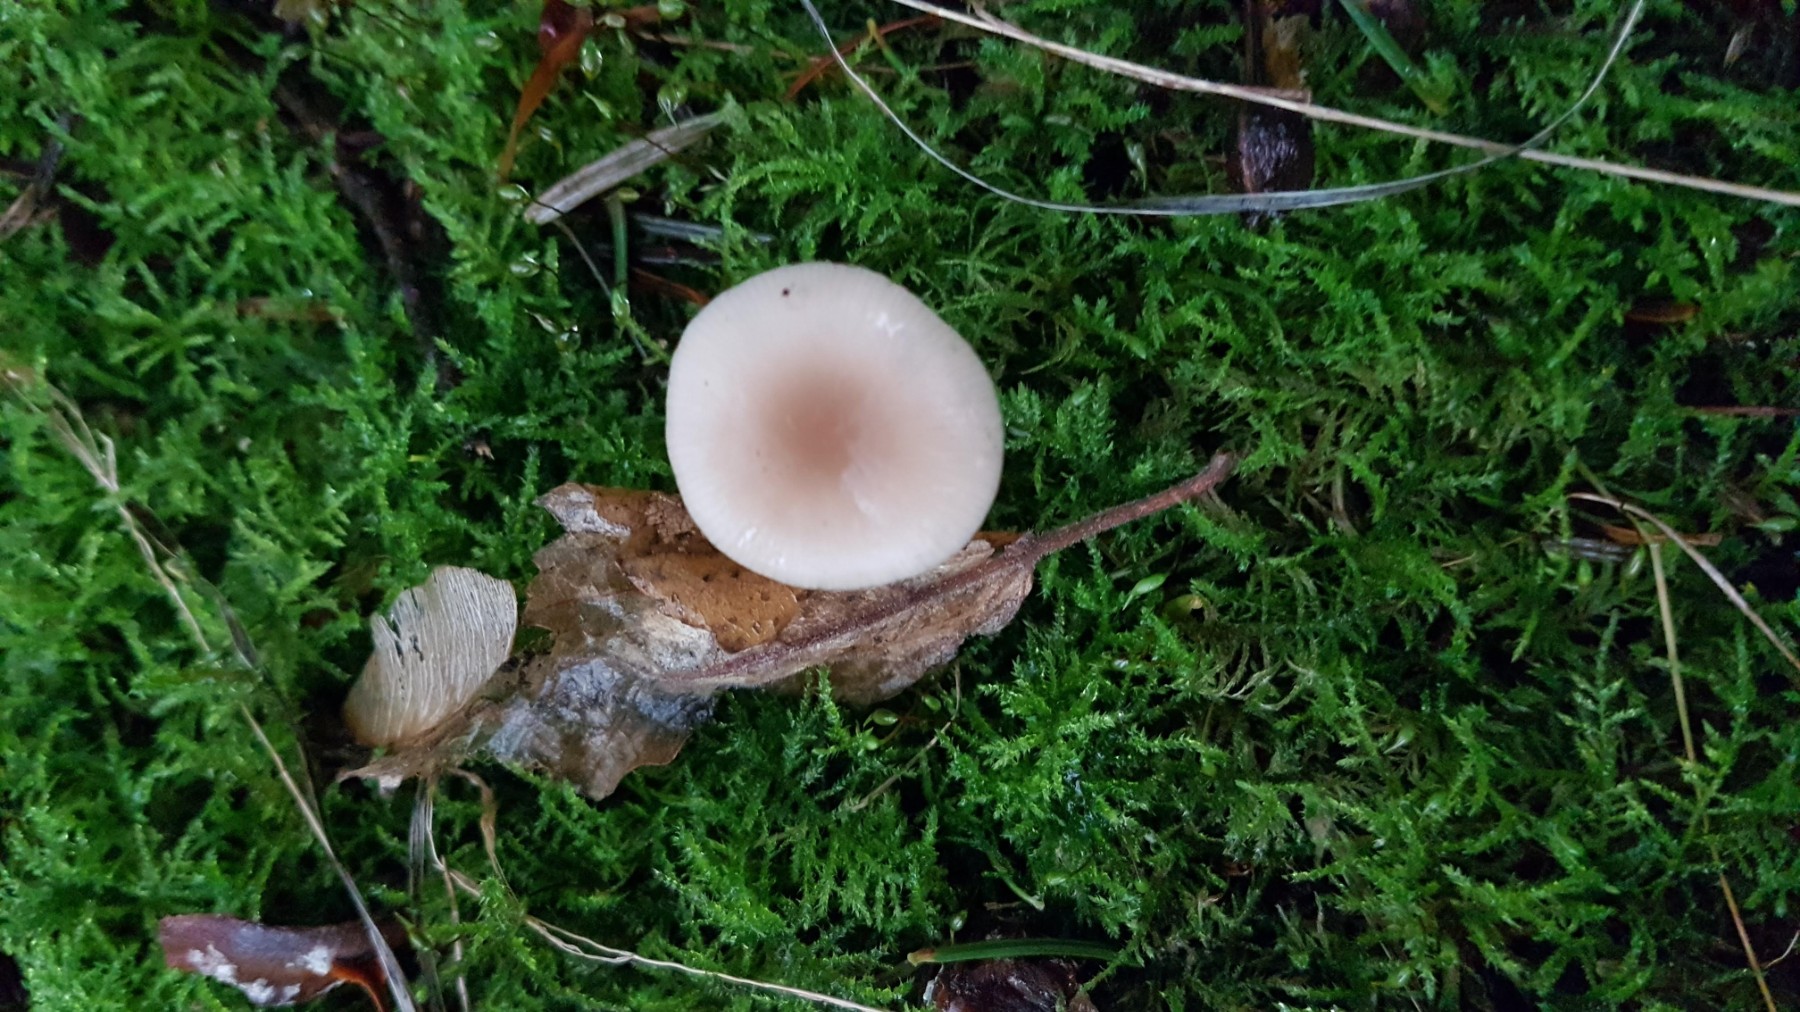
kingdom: Fungi
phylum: Basidiomycota
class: Agaricomycetes
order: Agaricales
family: Tricholomataceae
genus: Clitocybe
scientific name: Clitocybe fragrans
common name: vellugtende tragthat
